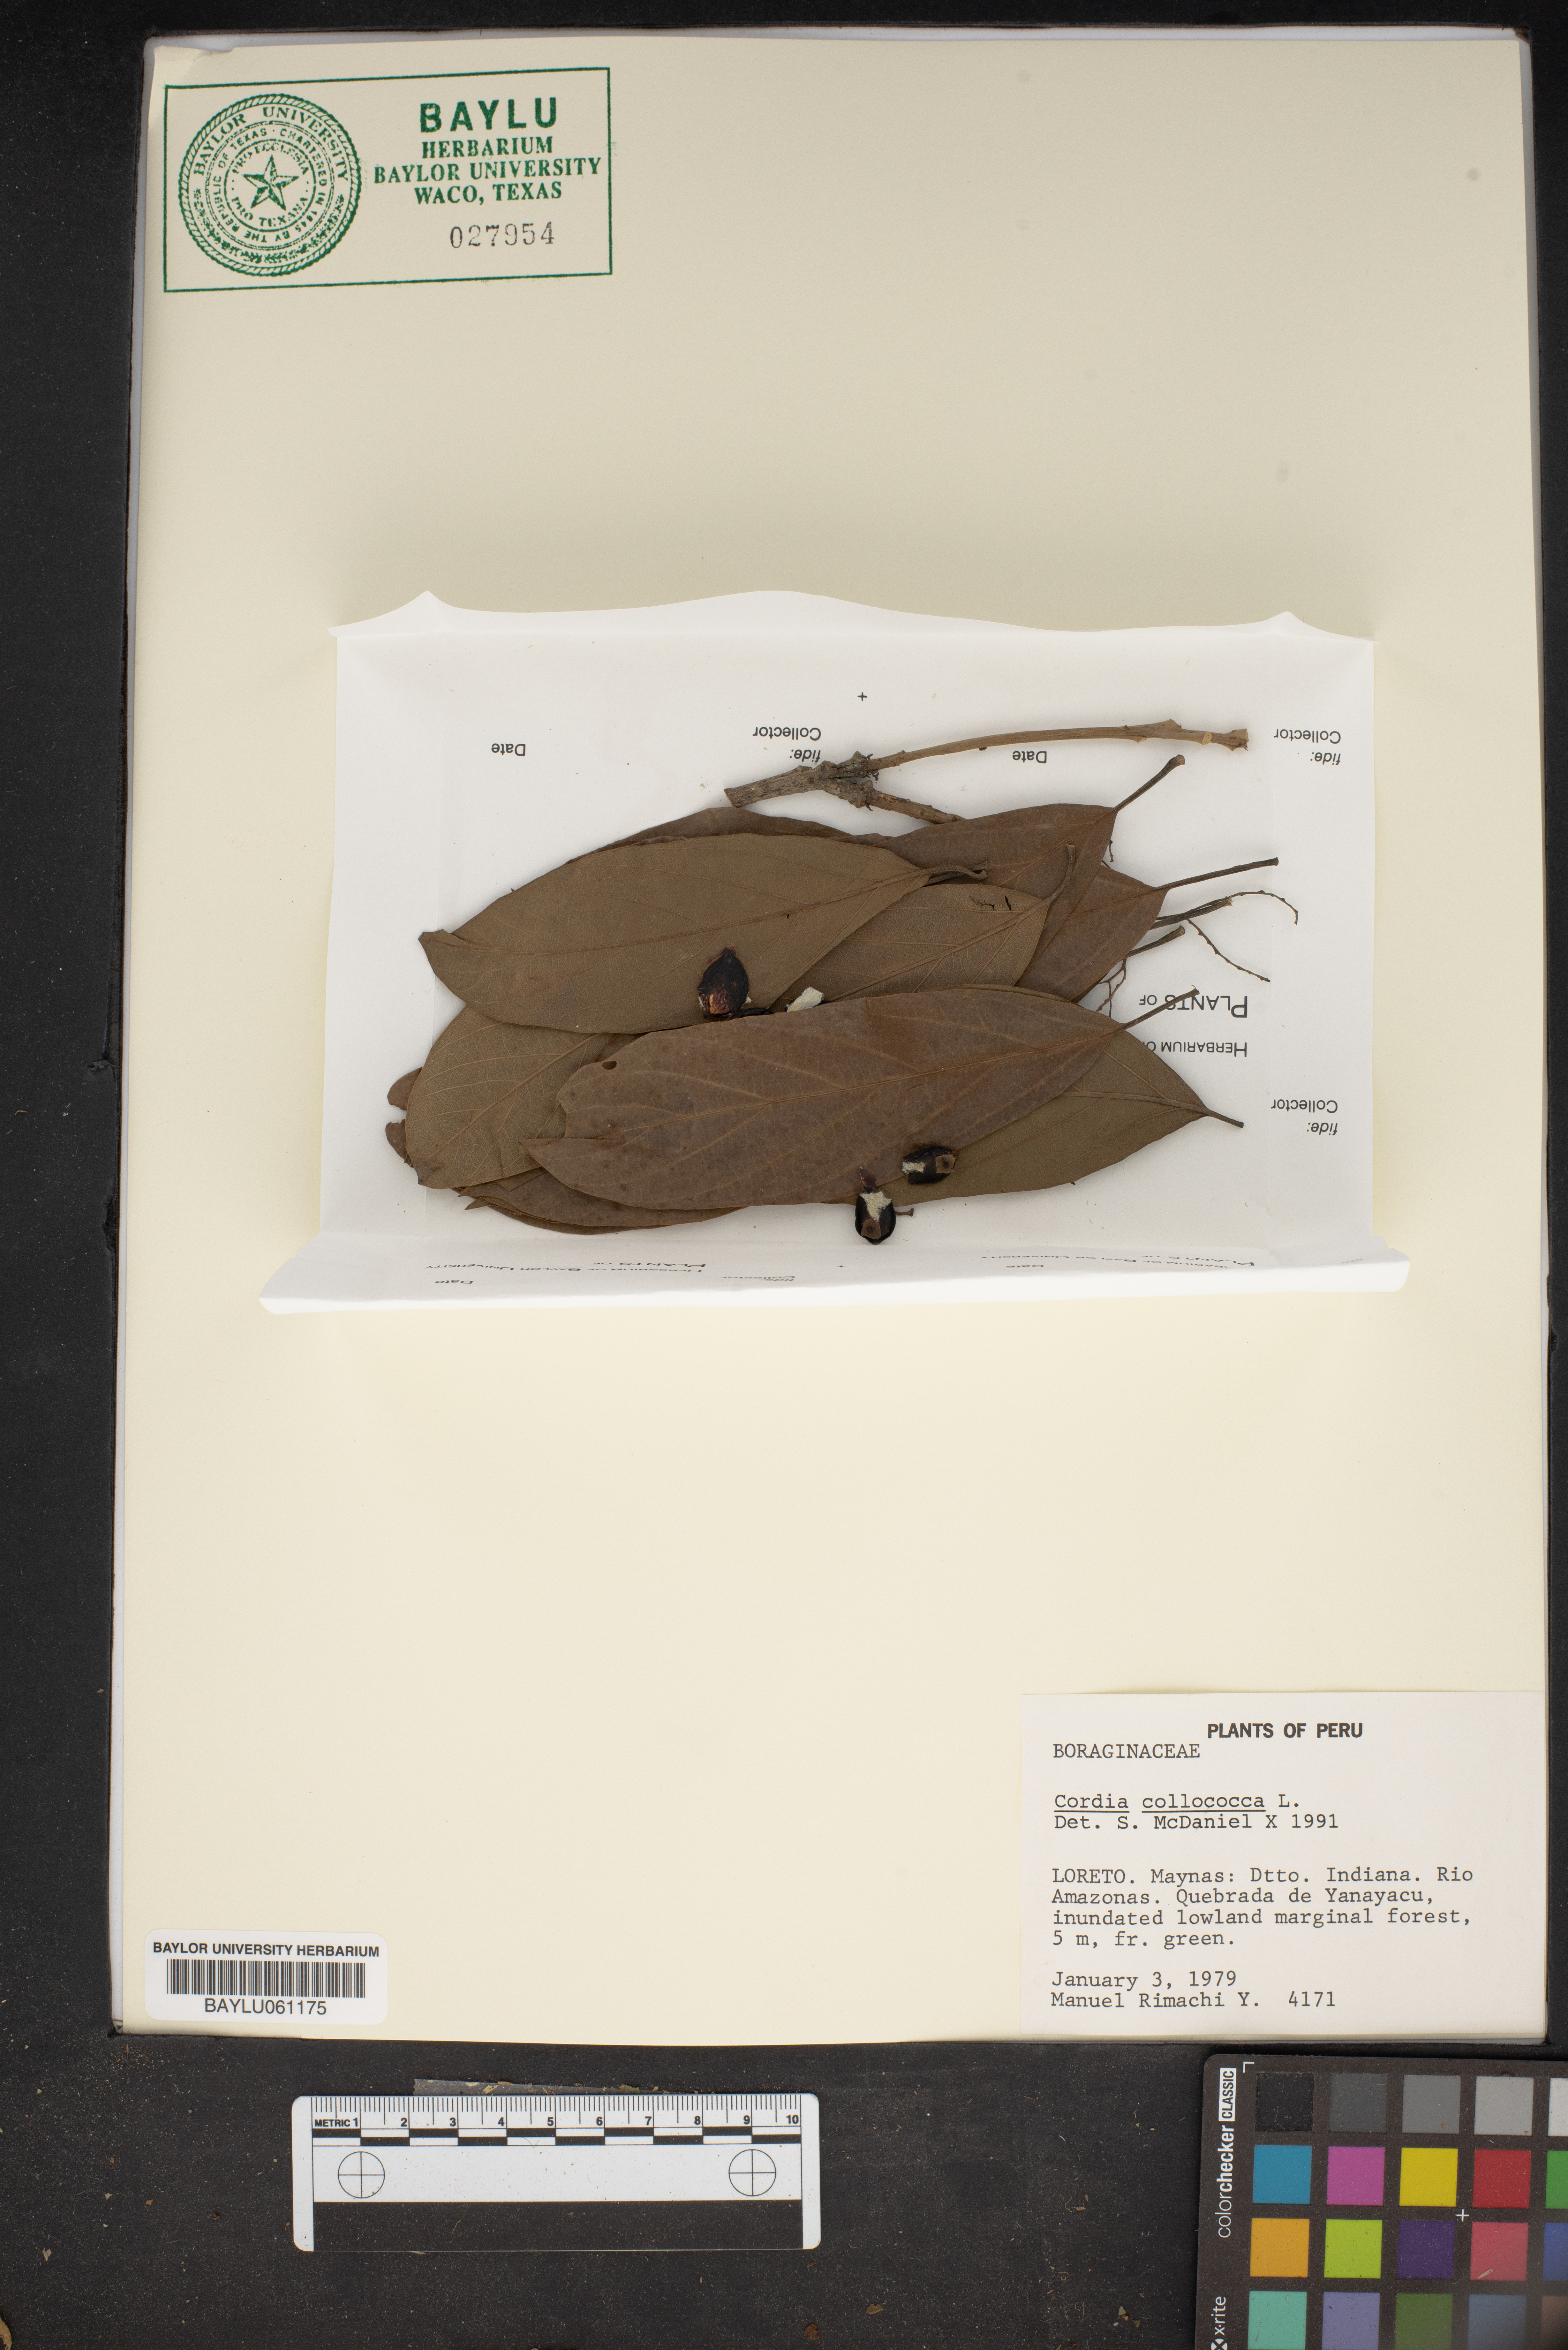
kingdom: Plantae
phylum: Tracheophyta
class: Magnoliopsida
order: Boraginales
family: Cordiaceae
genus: Cordia
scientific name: Cordia collococca
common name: Clammy cherry
